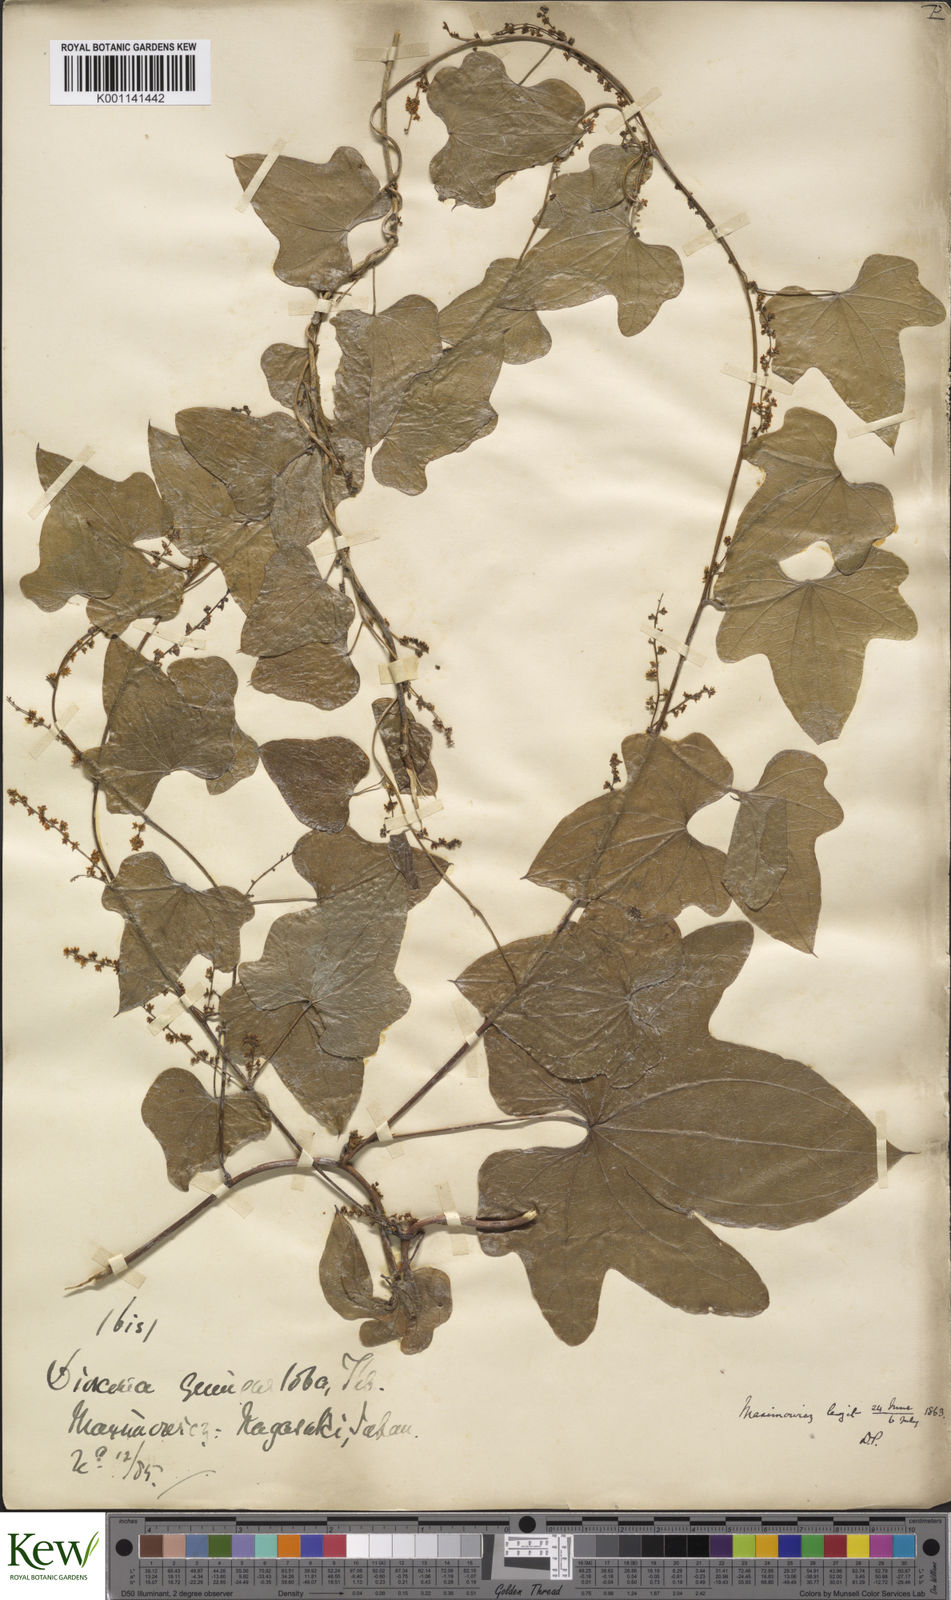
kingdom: Plantae
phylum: Tracheophyta
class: Liliopsida
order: Dioscoreales
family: Dioscoreaceae
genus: Dioscorea
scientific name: Dioscorea quinquelobata
